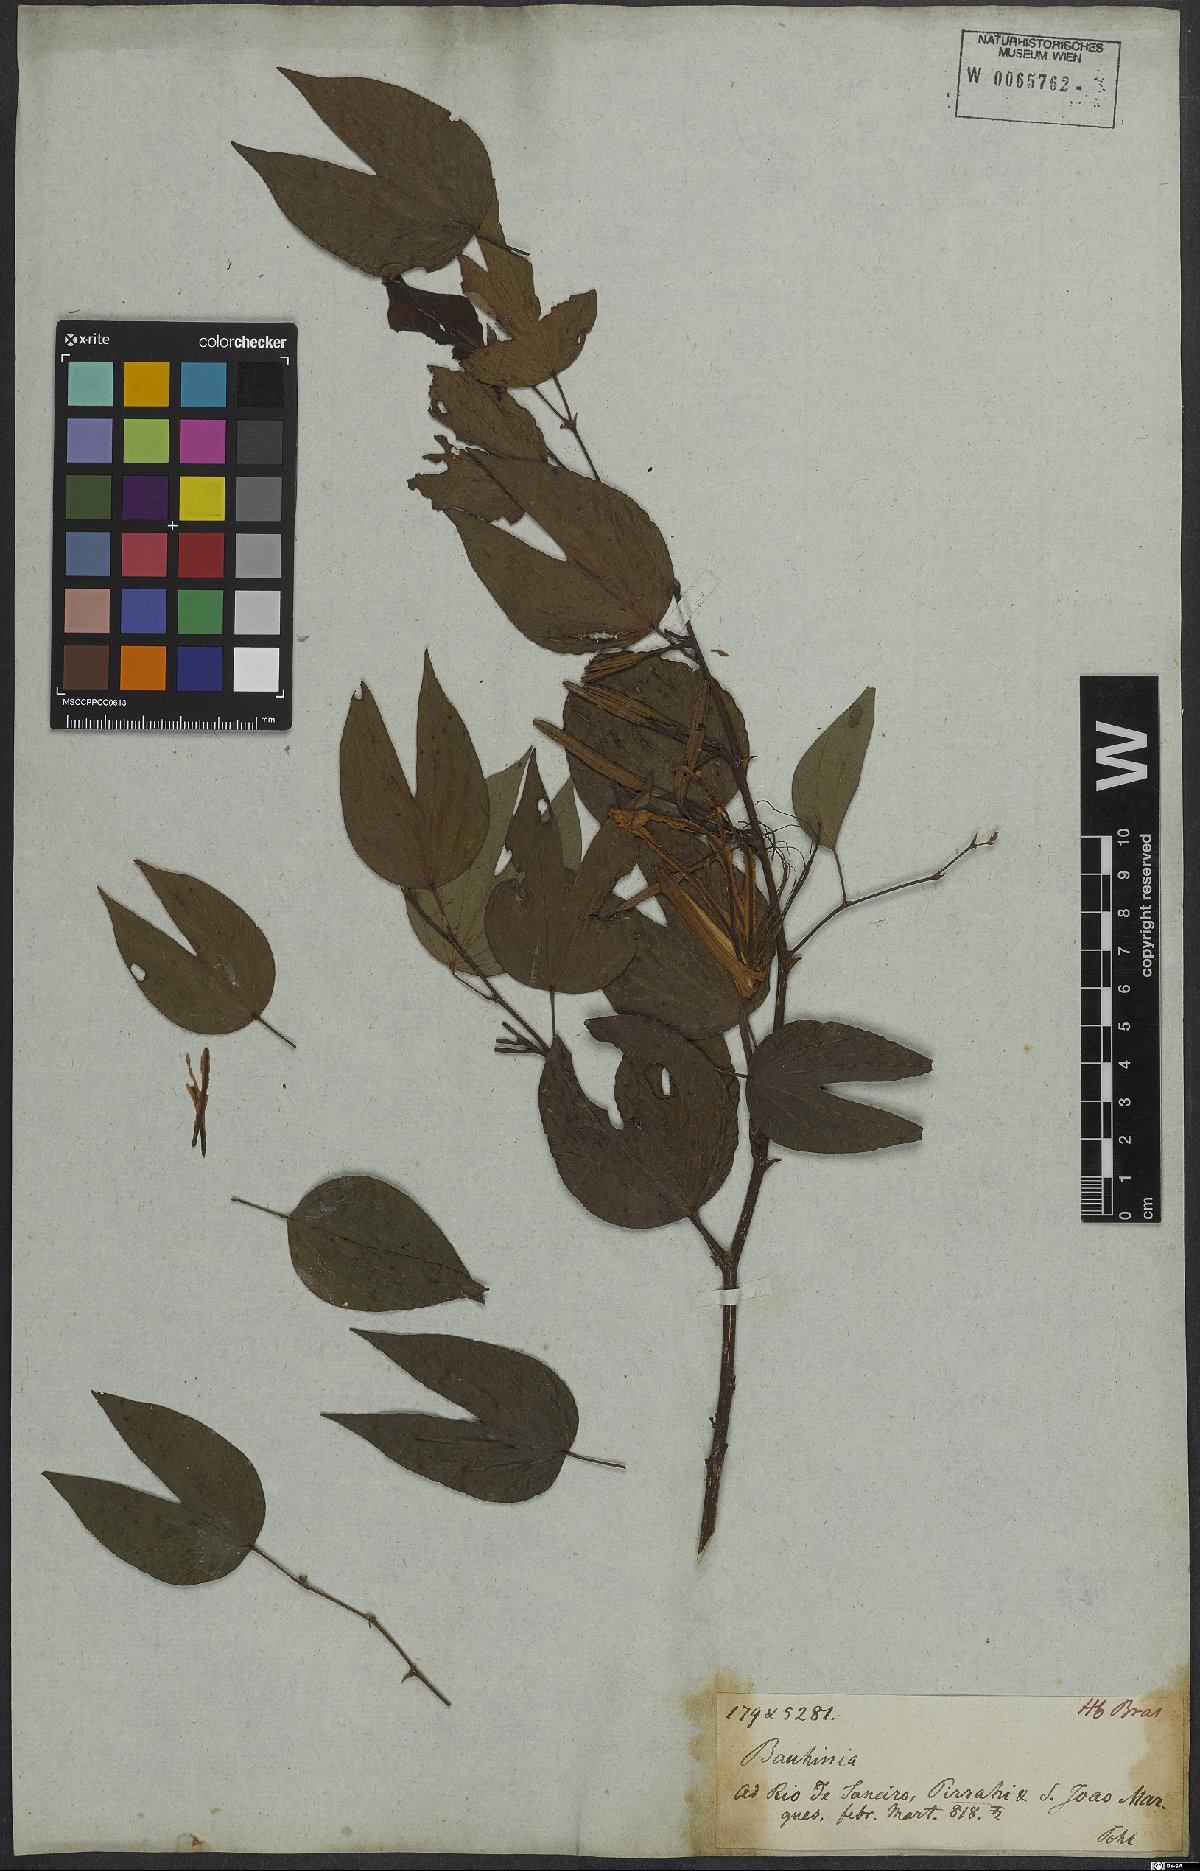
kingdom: Plantae
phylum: Tracheophyta
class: Magnoliopsida
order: Fabales
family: Fabaceae
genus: Bauhinia
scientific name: Bauhinia forficata
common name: Orchid tree
